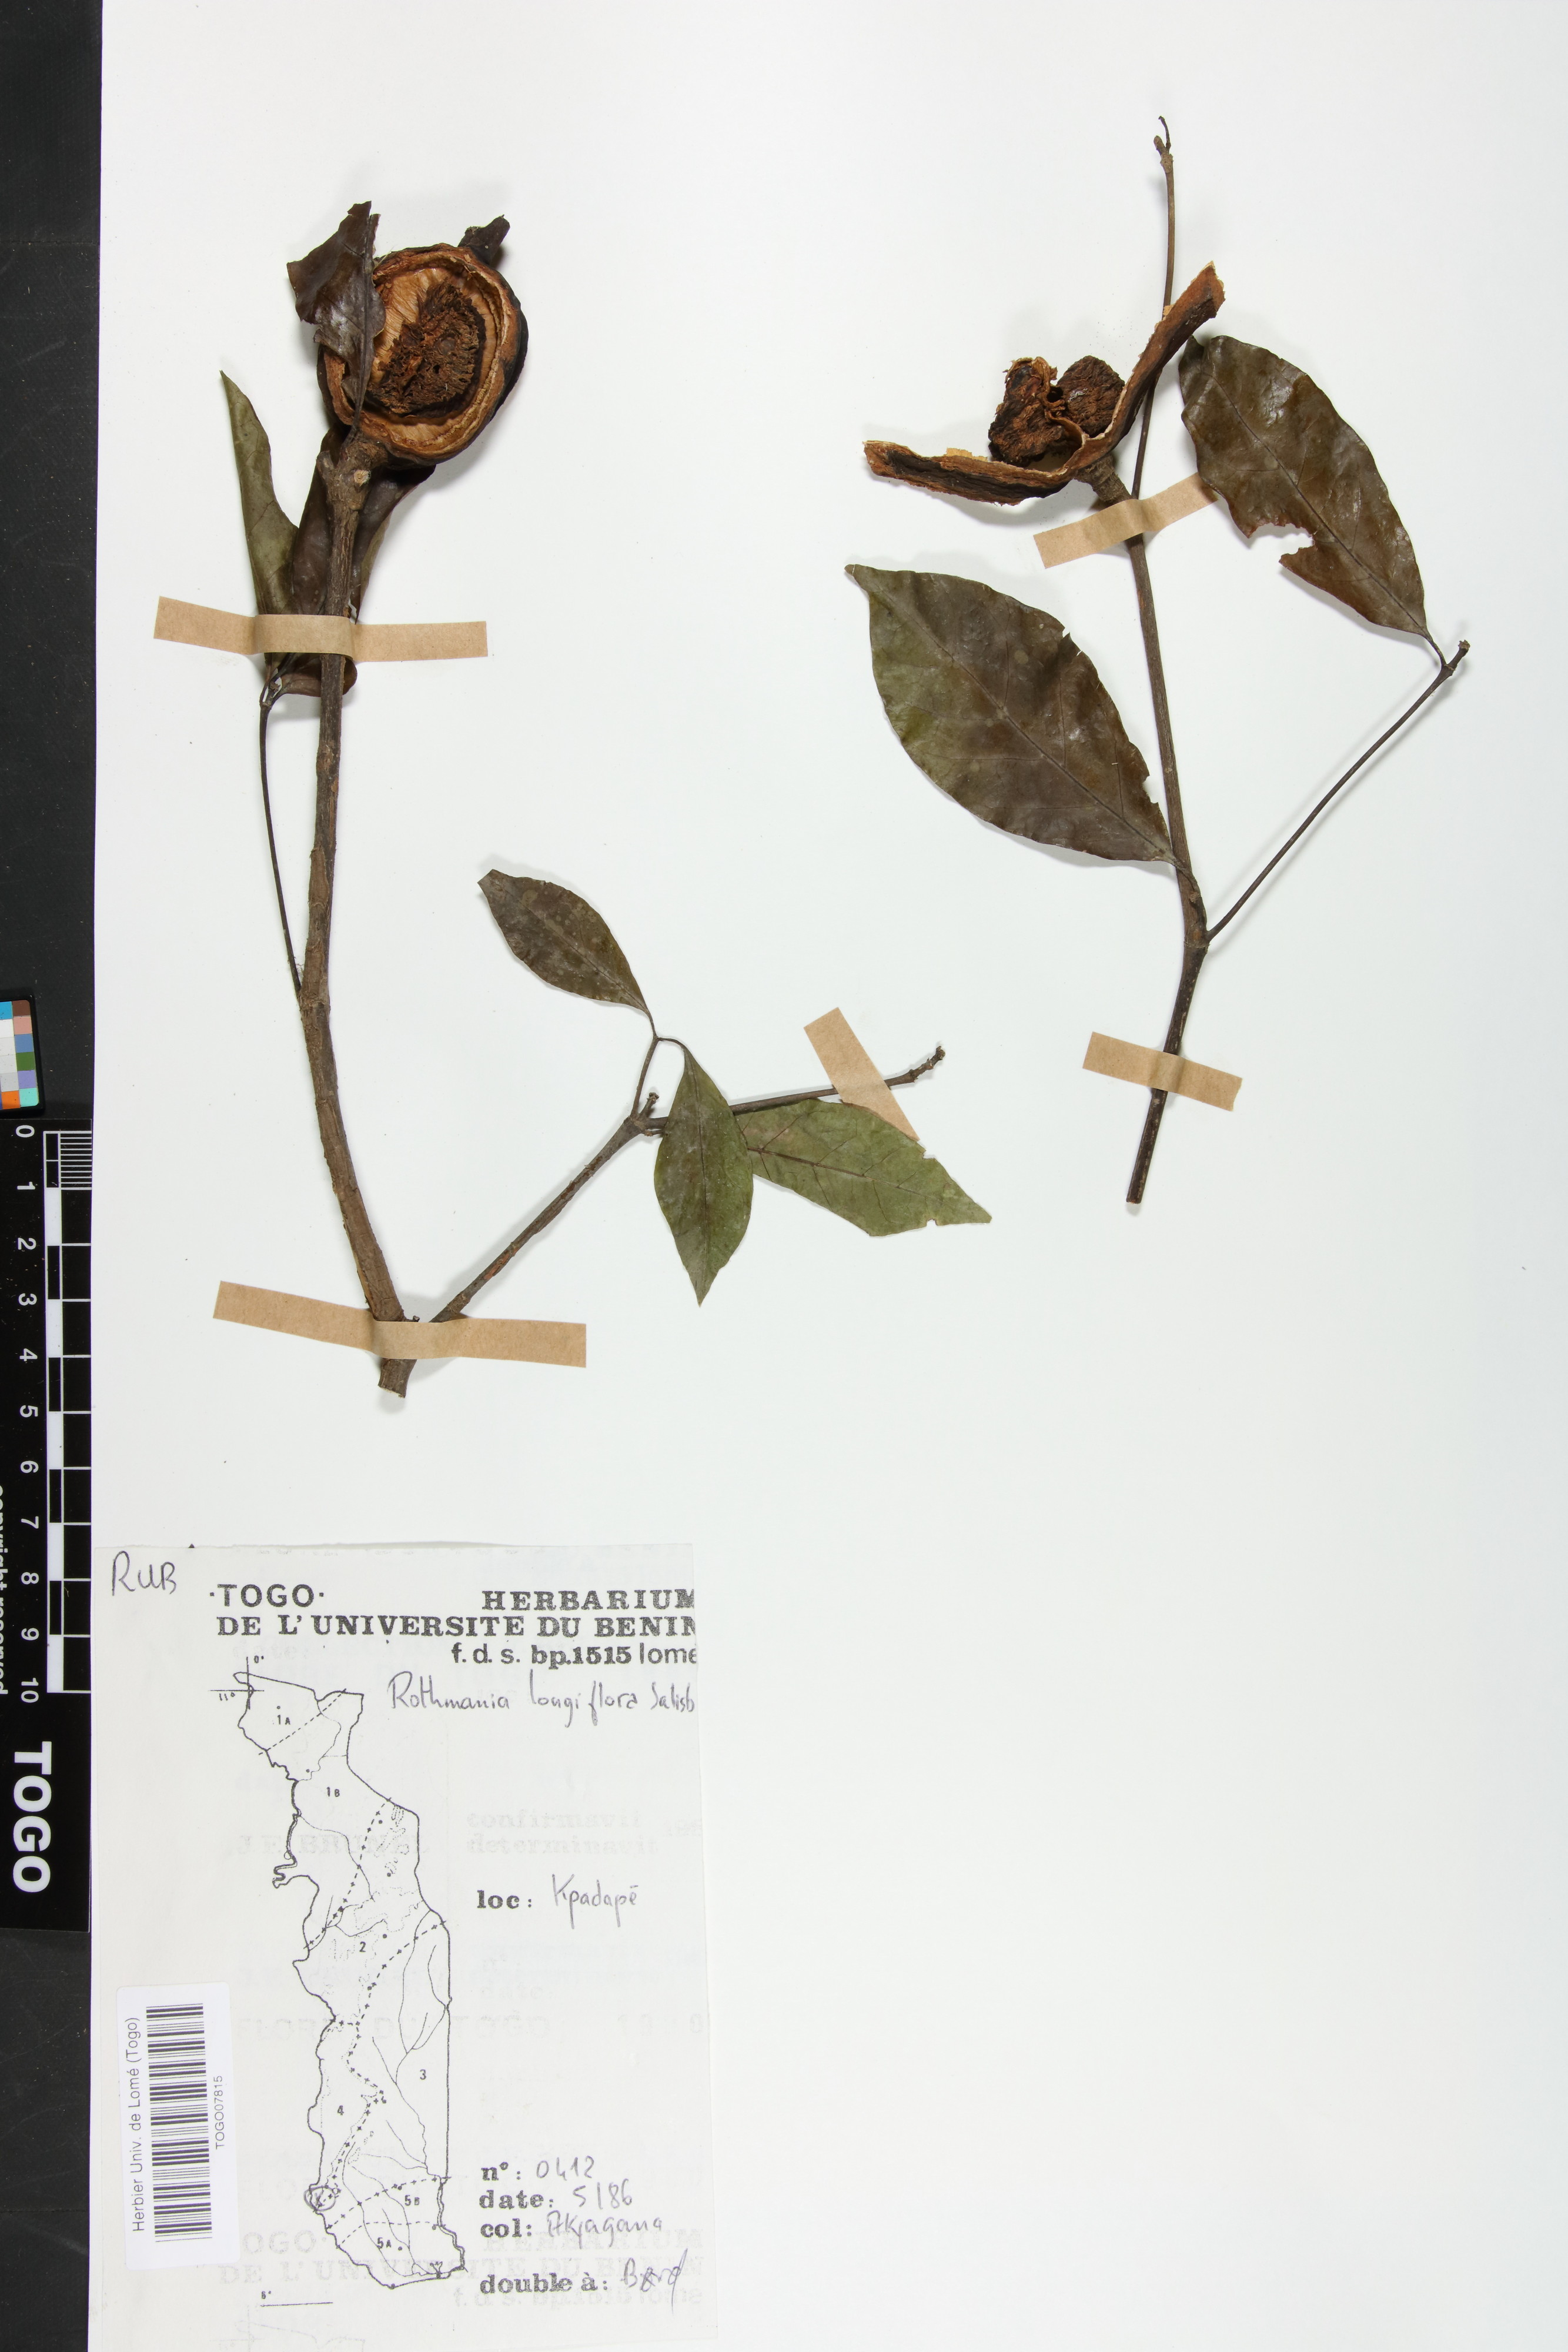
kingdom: Plantae
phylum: Tracheophyta
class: Magnoliopsida
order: Gentianales
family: Rubiaceae
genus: Rothmannia
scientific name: Rothmannia longiflora
